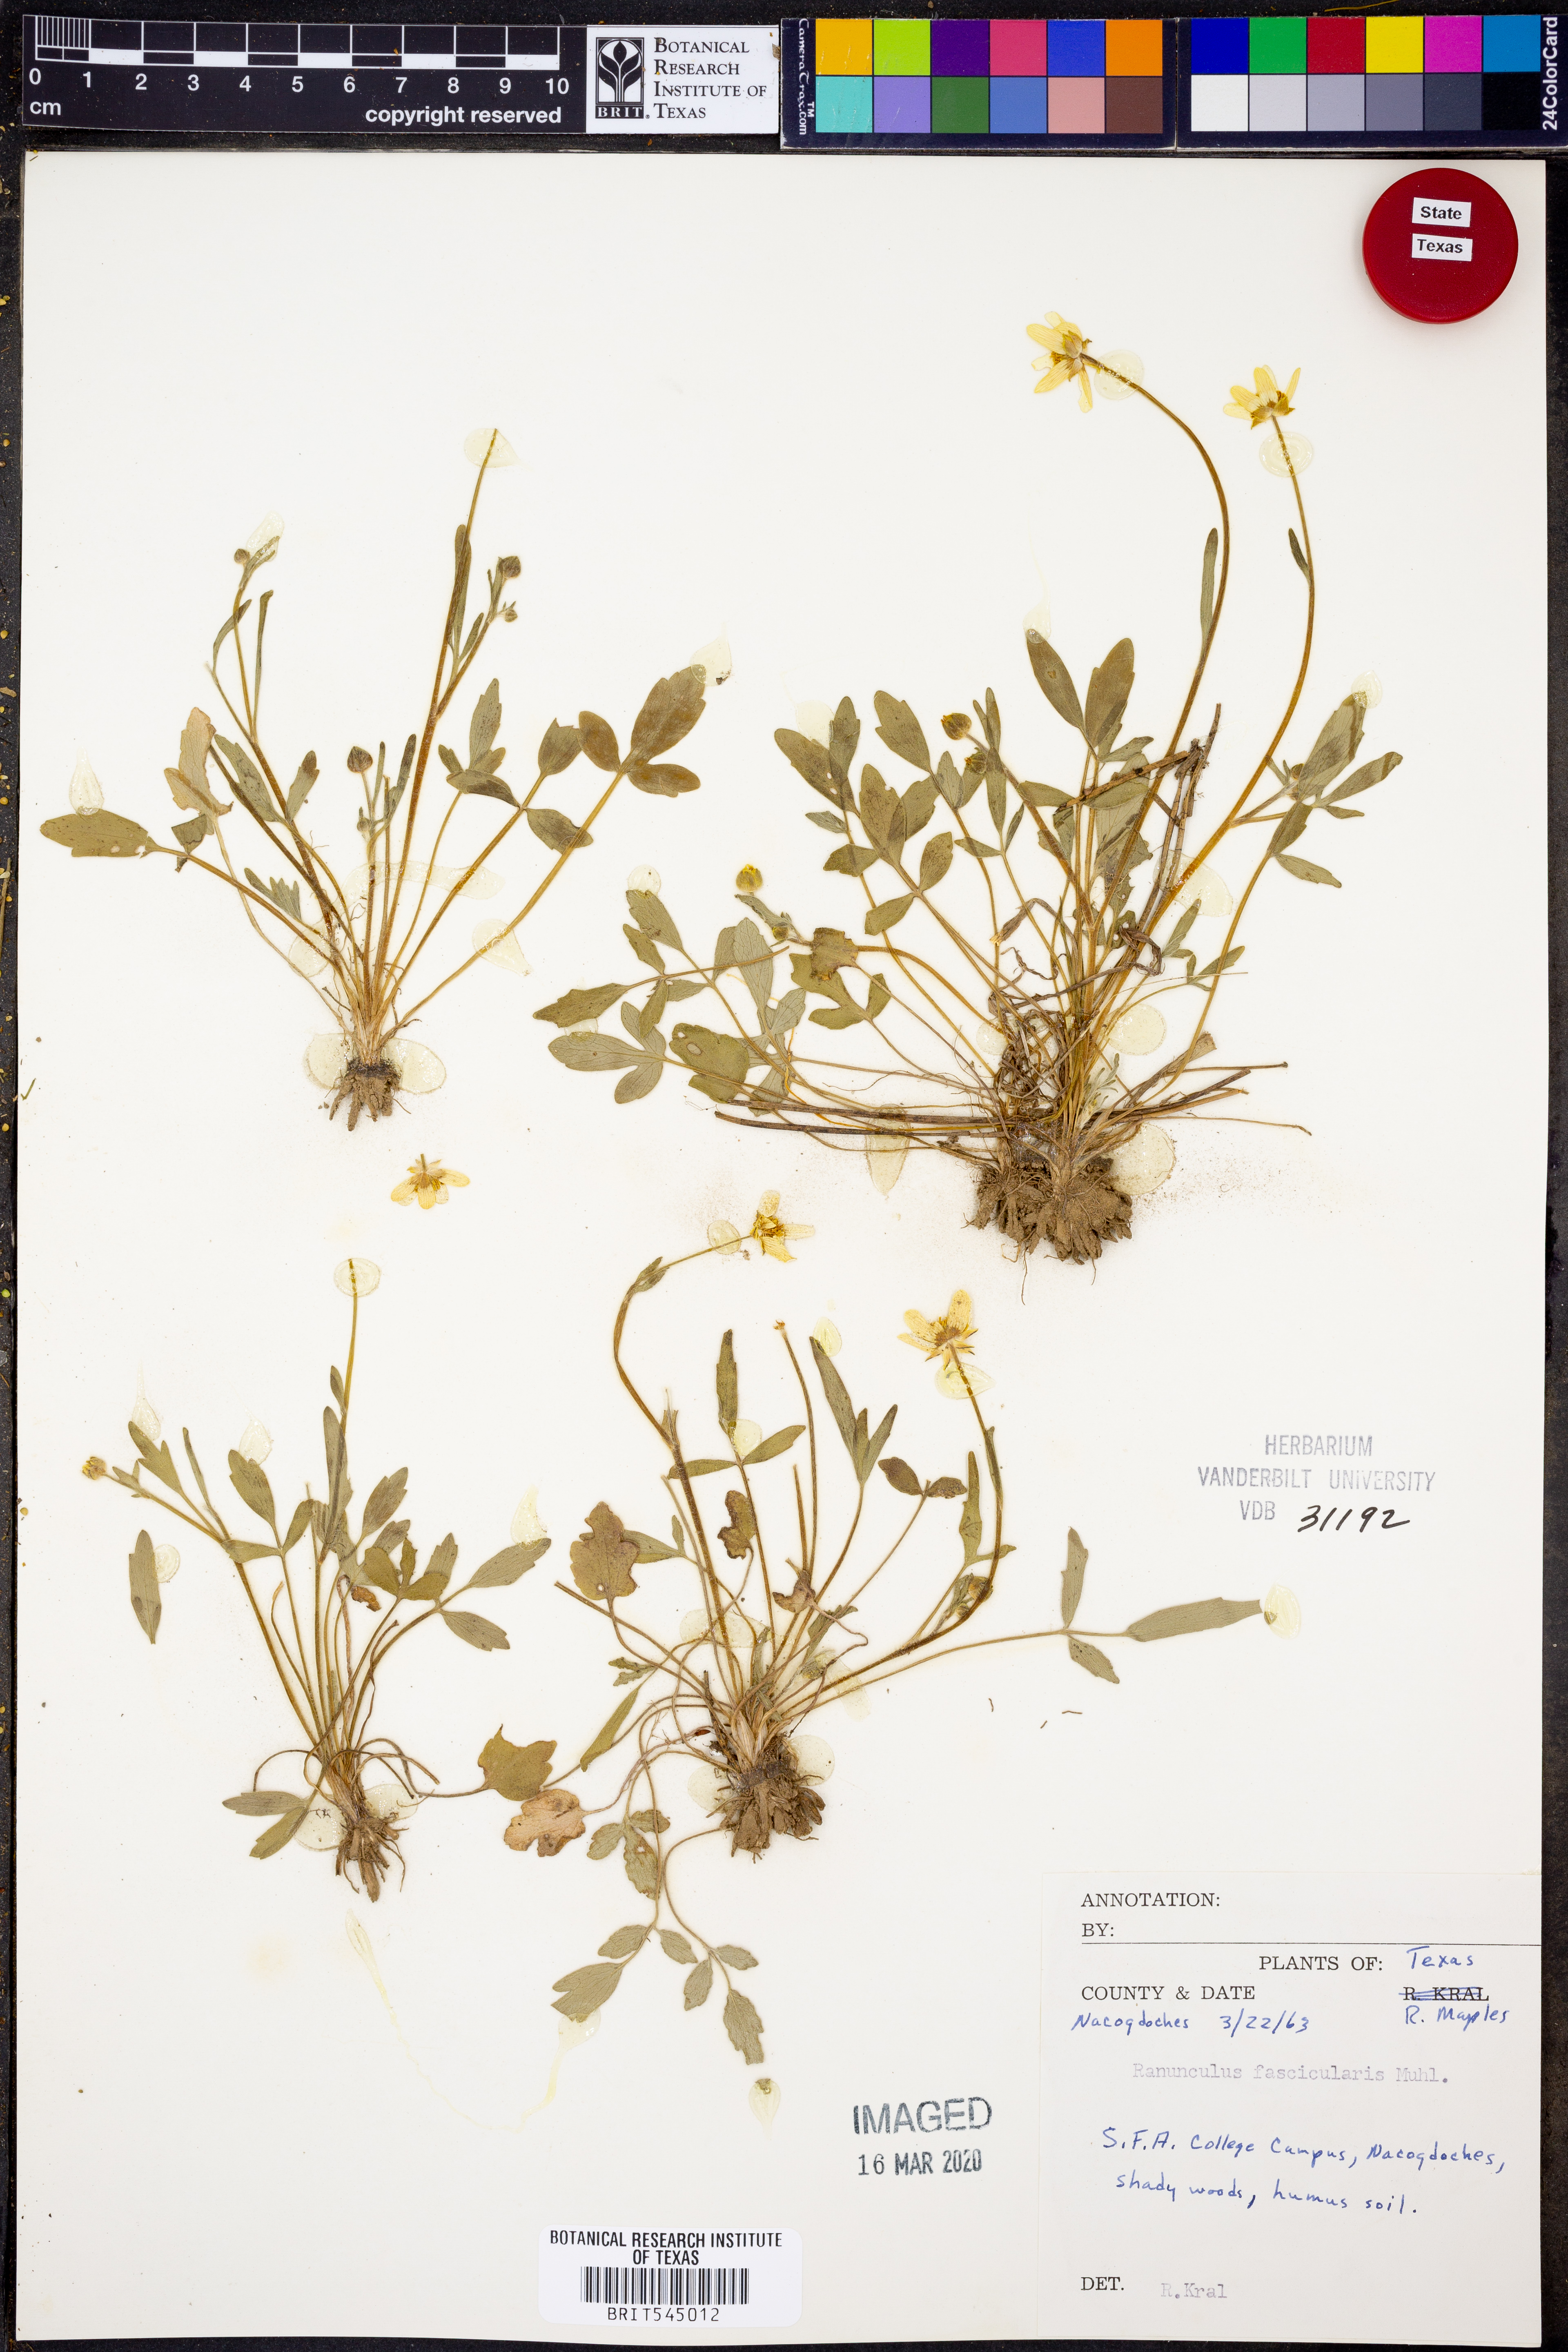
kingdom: Plantae
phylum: Tracheophyta
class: Magnoliopsida
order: Ranunculales
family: Ranunculaceae
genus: Ranunculus
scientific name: Ranunculus fascicularis
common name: Early buttercup
